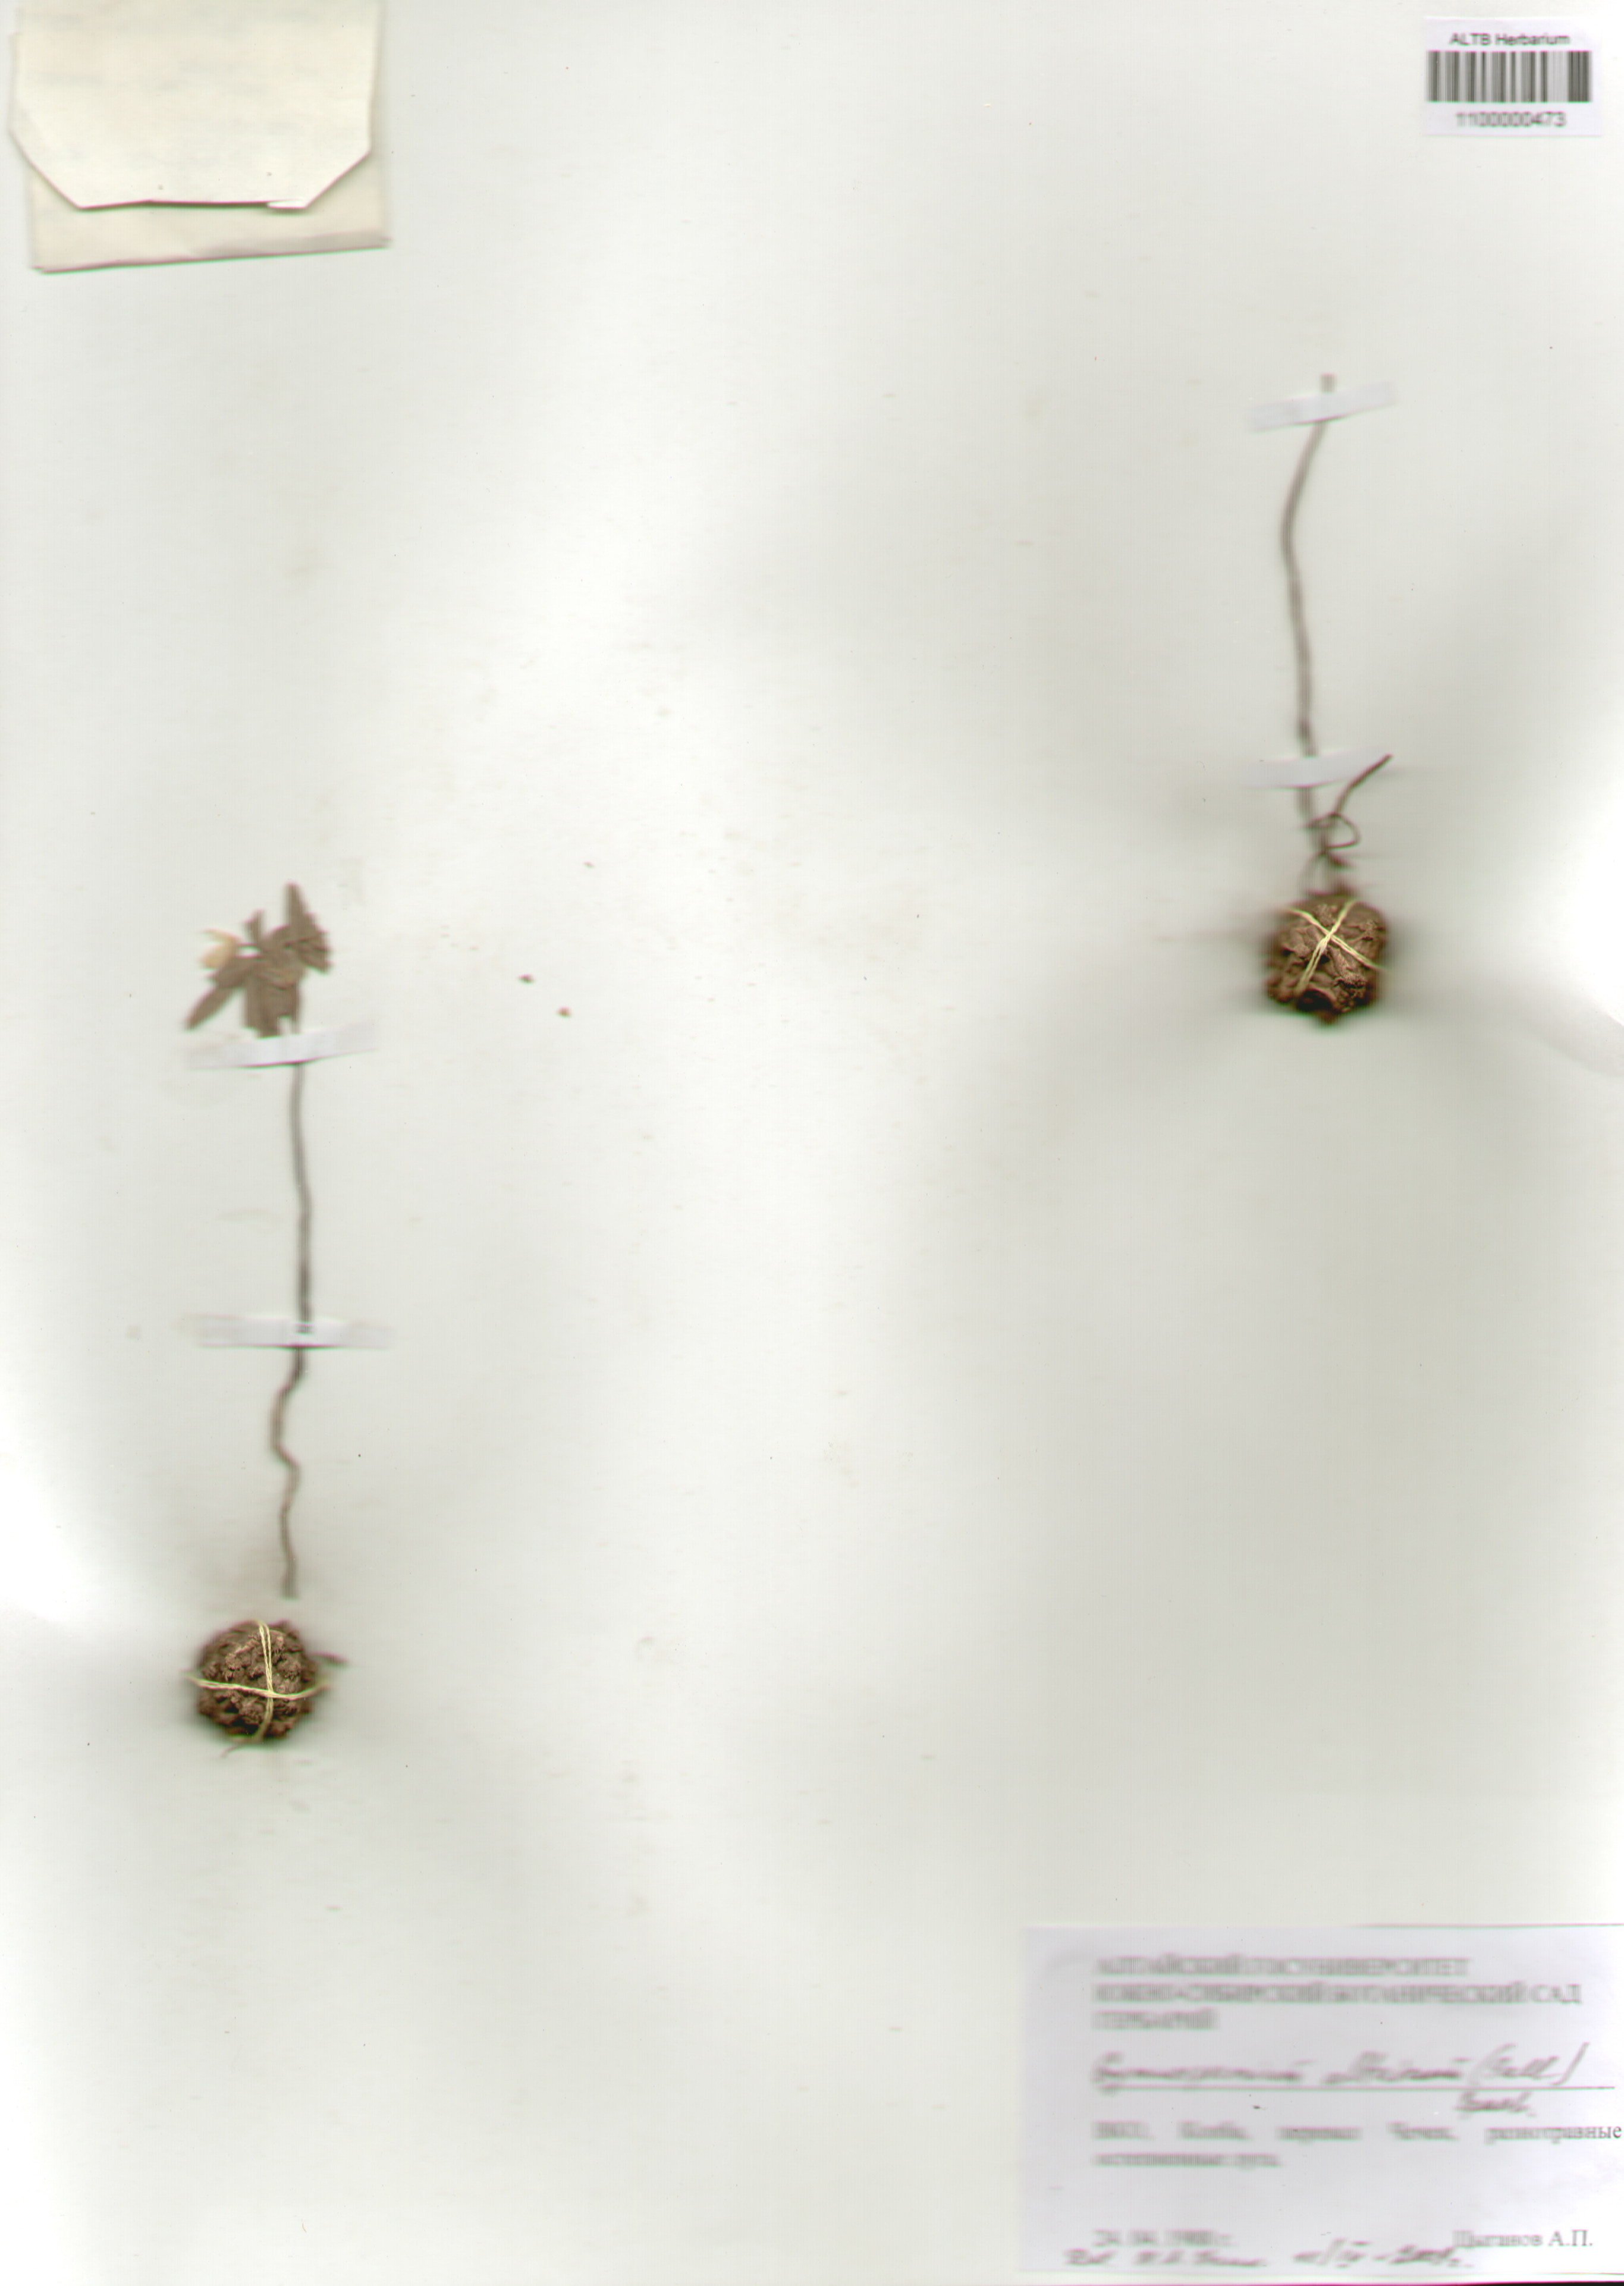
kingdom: Plantae
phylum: Tracheophyta
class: Magnoliopsida
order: Ranunculales
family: Berberidaceae
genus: Gymnospermium
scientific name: Gymnospermium altaicum
